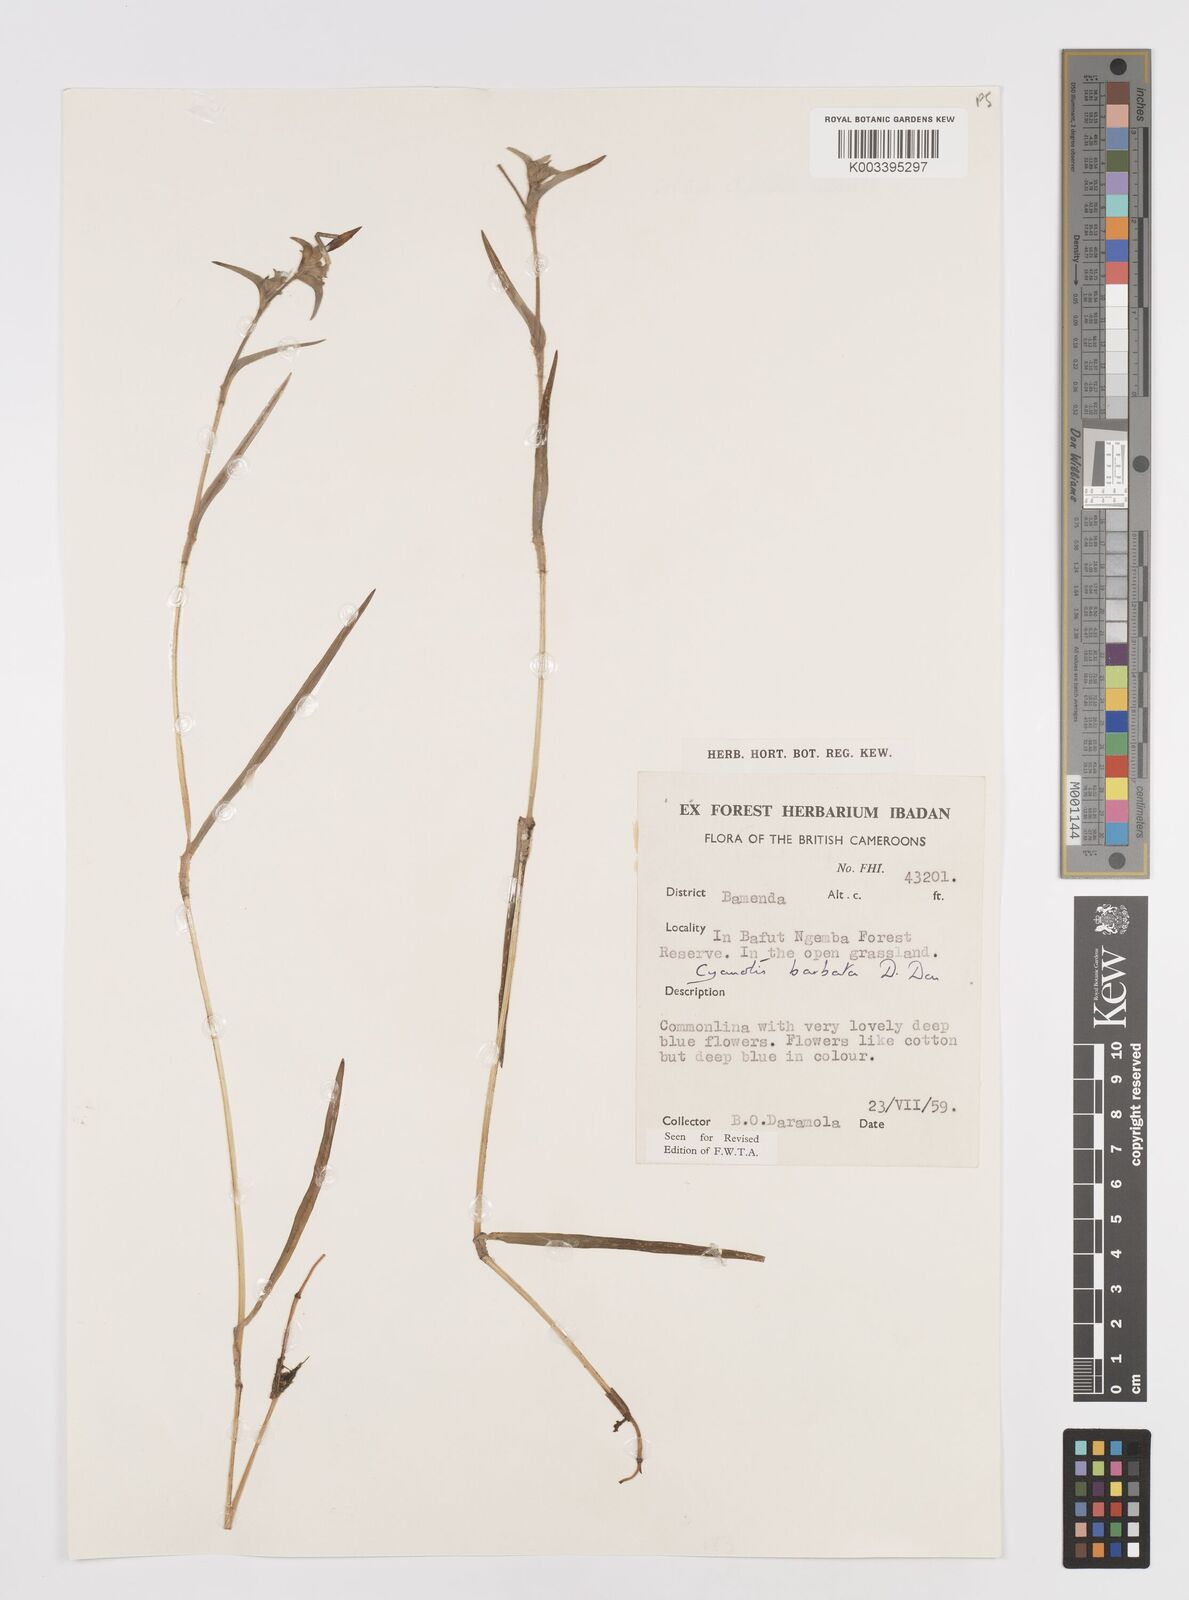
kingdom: Plantae
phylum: Tracheophyta
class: Liliopsida
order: Commelinales
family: Commelinaceae
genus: Cyanotis
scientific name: Cyanotis vaga
